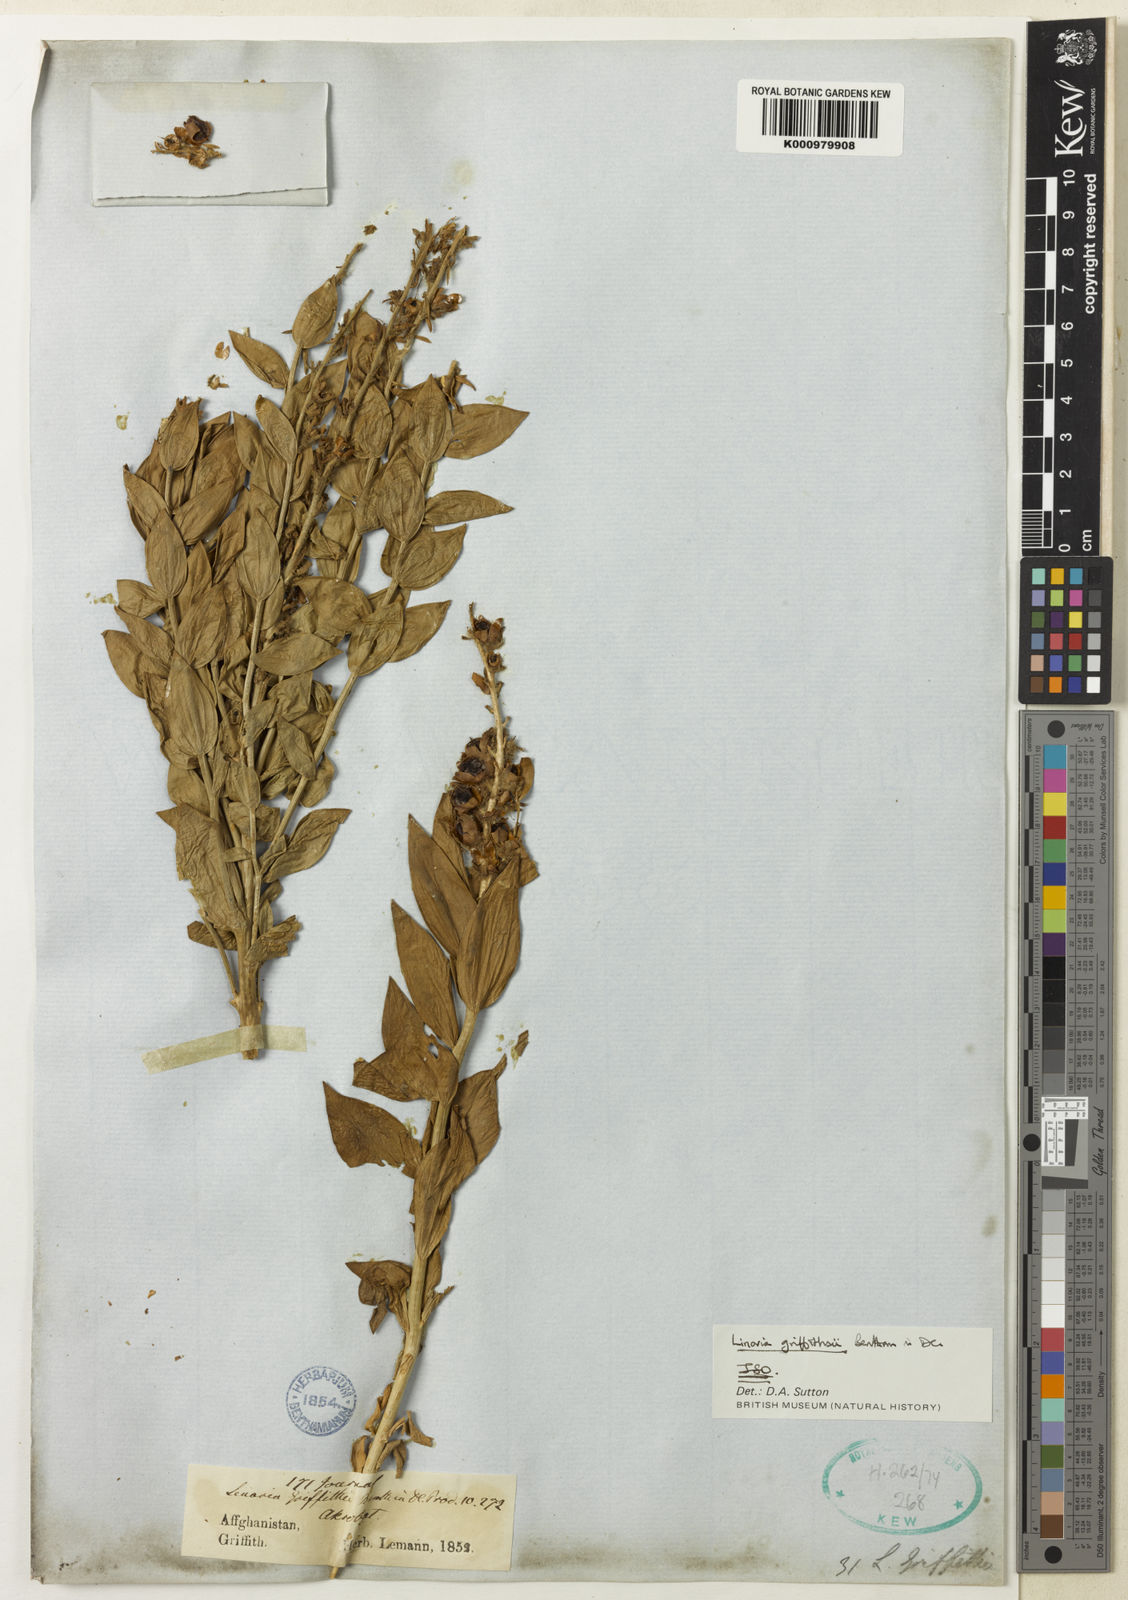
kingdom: Plantae
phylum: Tracheophyta
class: Magnoliopsida
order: Lamiales
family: Plantaginaceae
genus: Linaria
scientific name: Linaria griffithii
